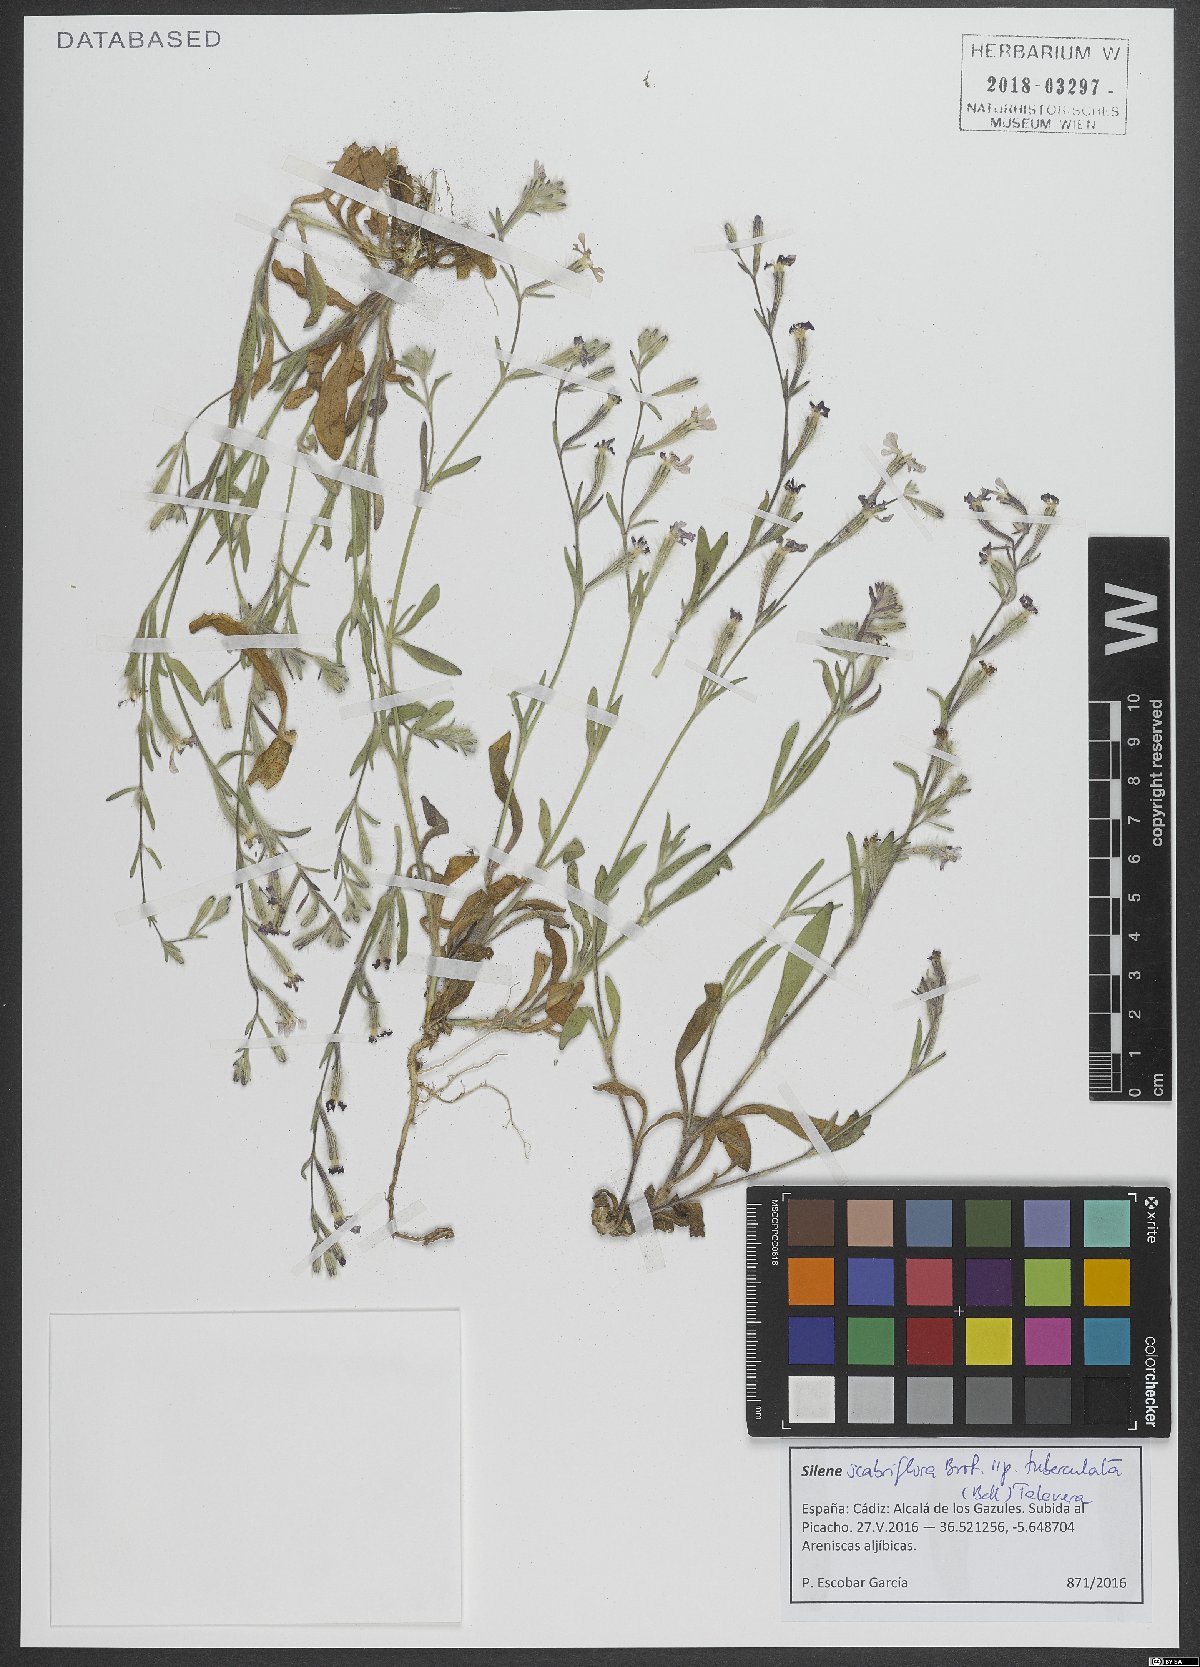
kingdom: Plantae
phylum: Tracheophyta
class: Magnoliopsida
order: Caryophyllales
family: Caryophyllaceae
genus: Silene
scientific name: Silene tuberculata
